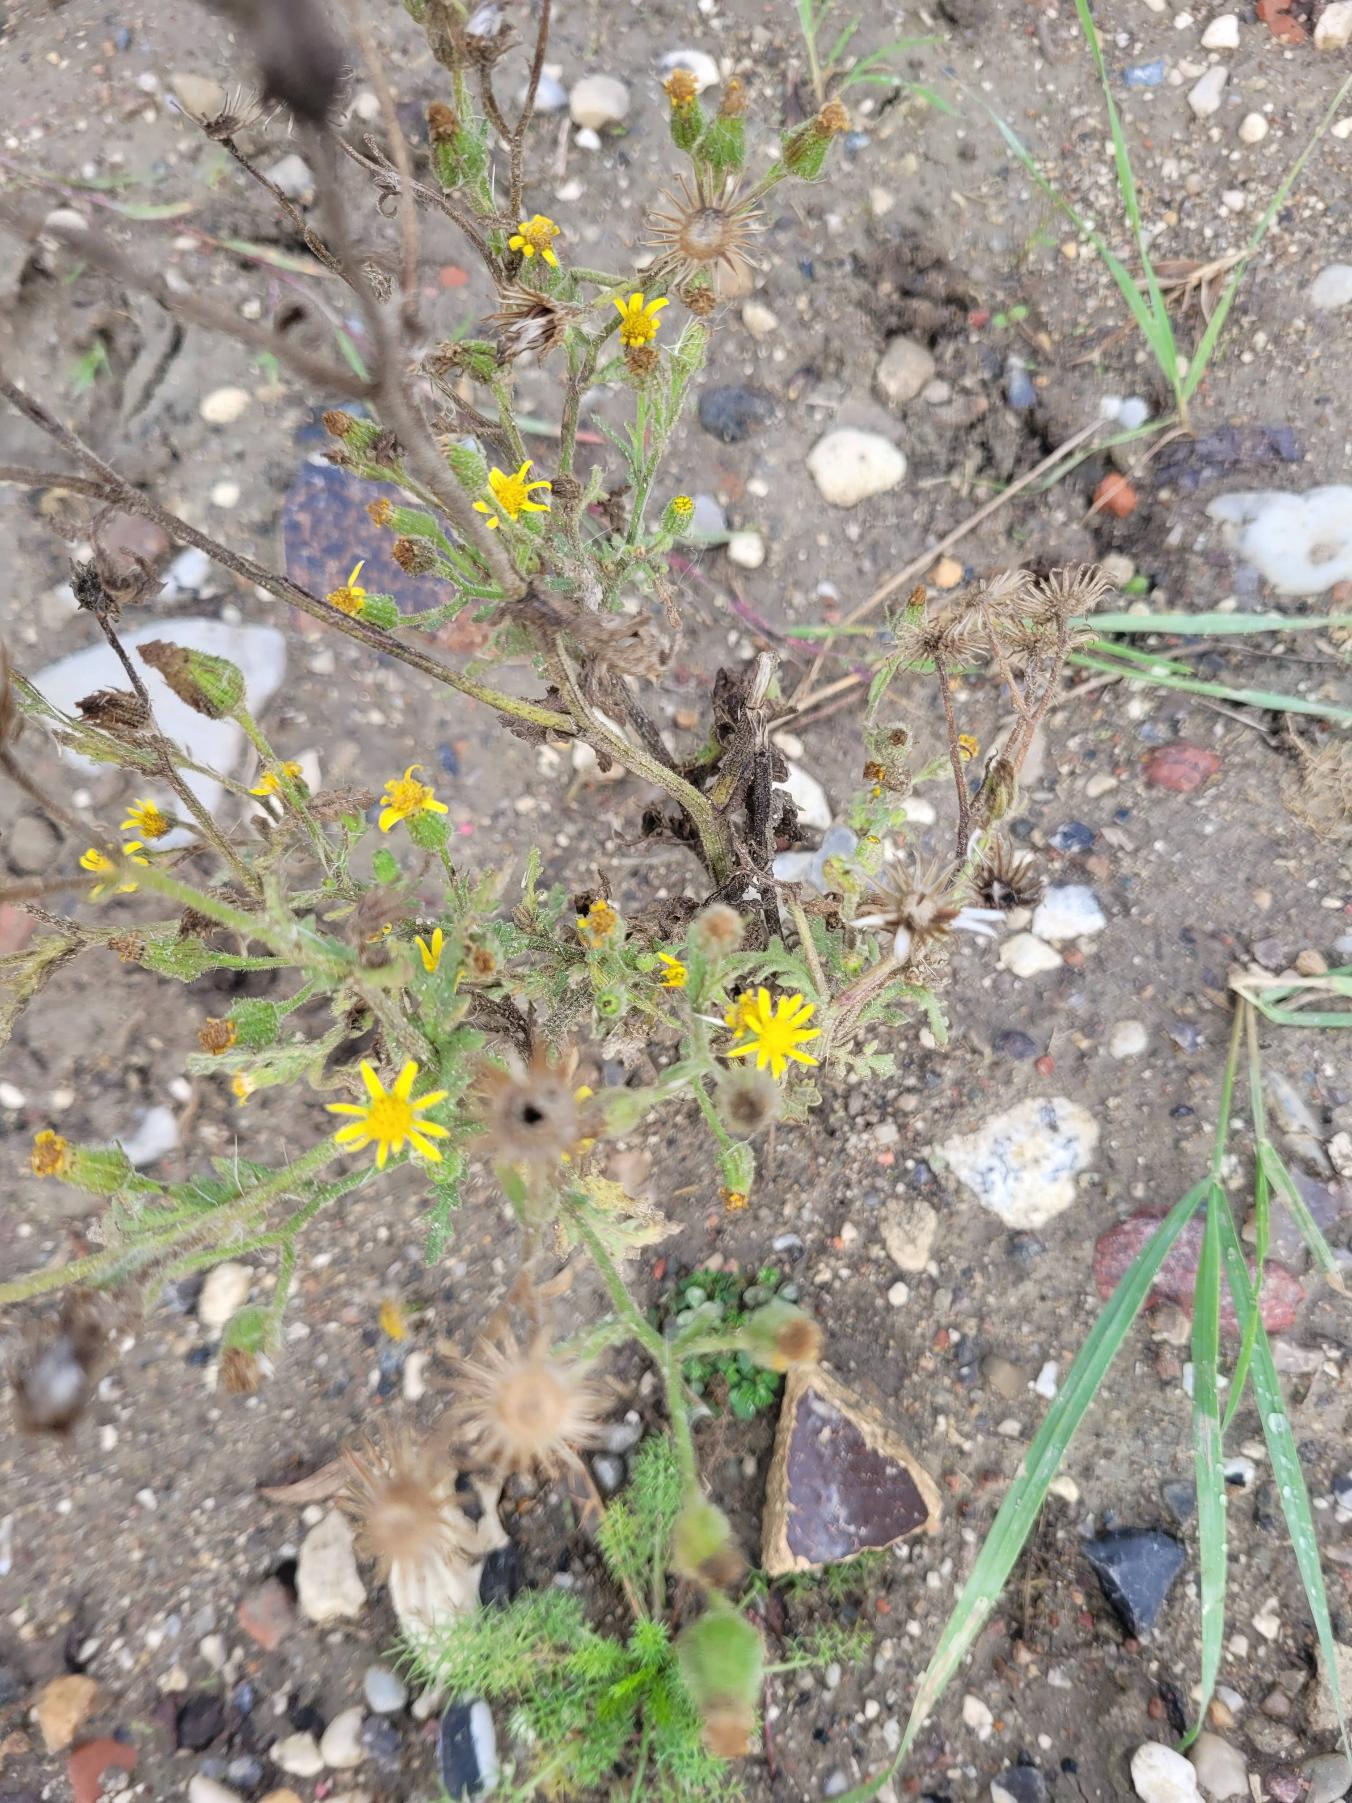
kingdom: Plantae
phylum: Tracheophyta
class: Magnoliopsida
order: Asterales
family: Asteraceae
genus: Senecio
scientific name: Senecio viscosus
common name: Klæbrig brandbæger
